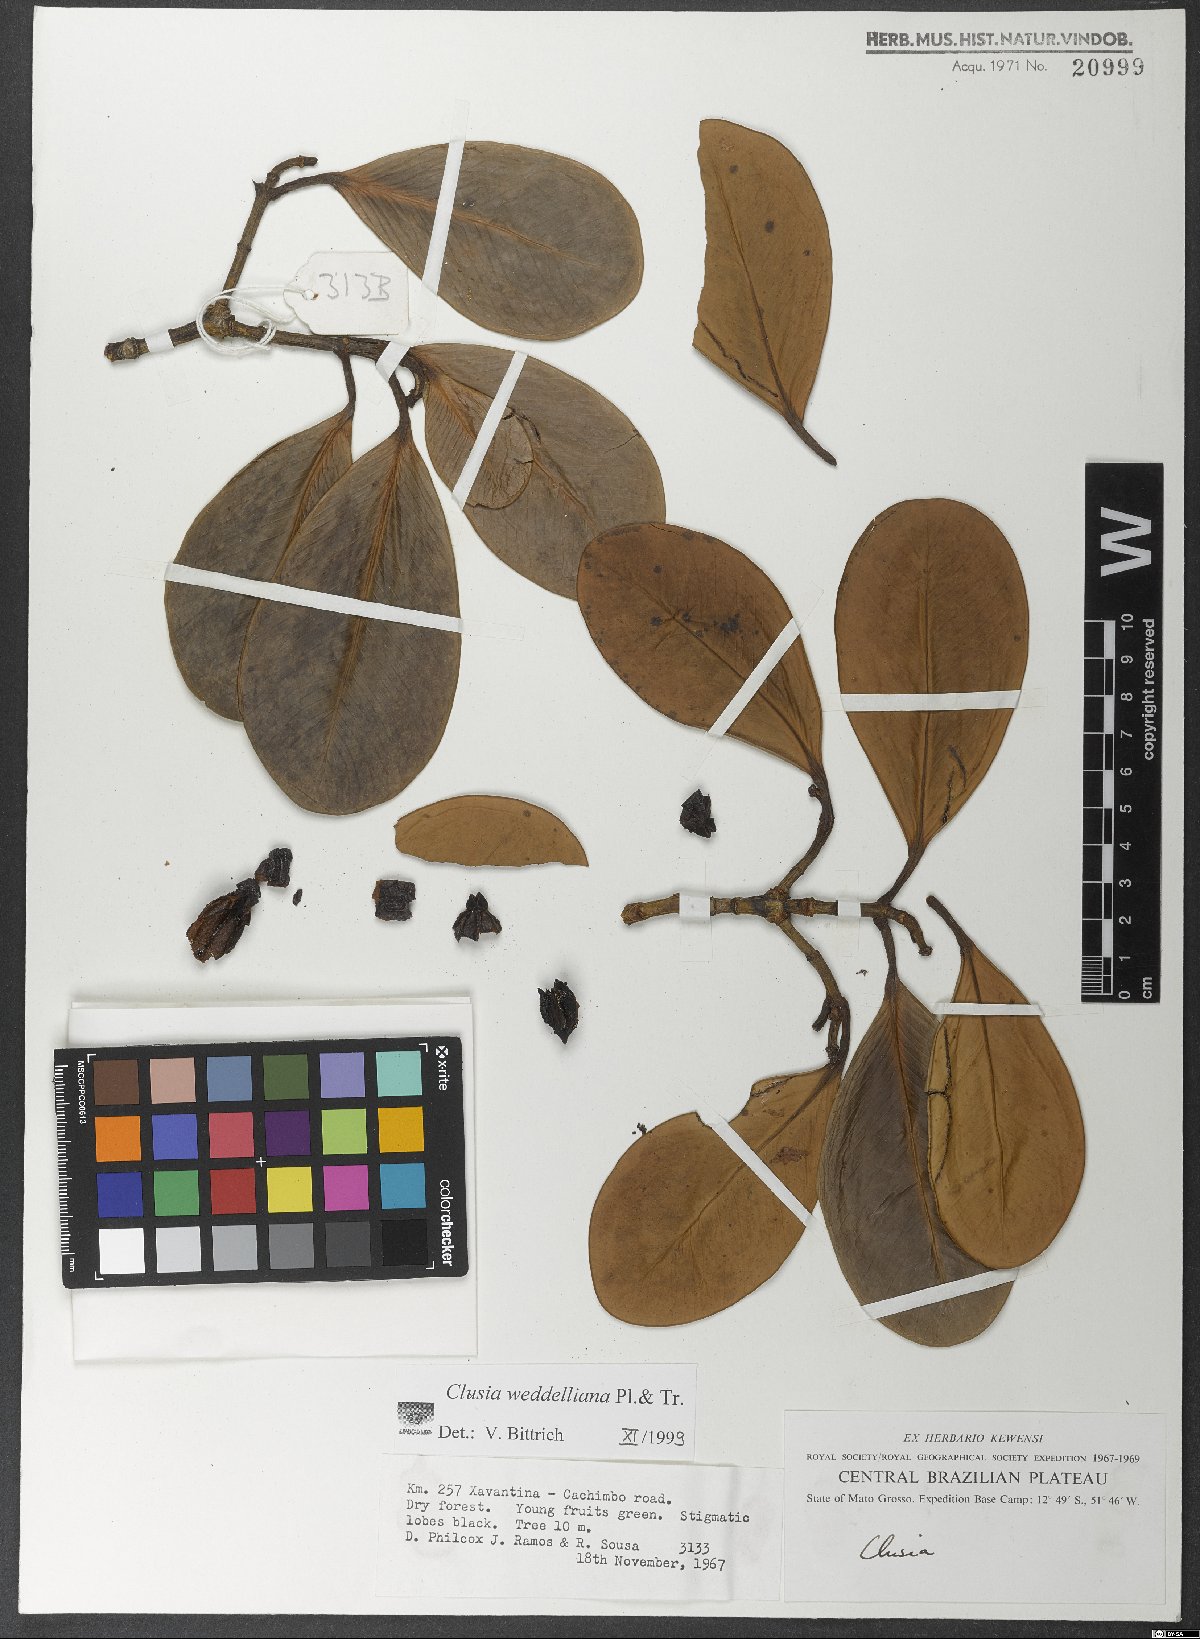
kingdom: Plantae
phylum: Tracheophyta
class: Magnoliopsida
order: Malpighiales
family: Clusiaceae
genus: Clusia
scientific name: Clusia weddelliana
